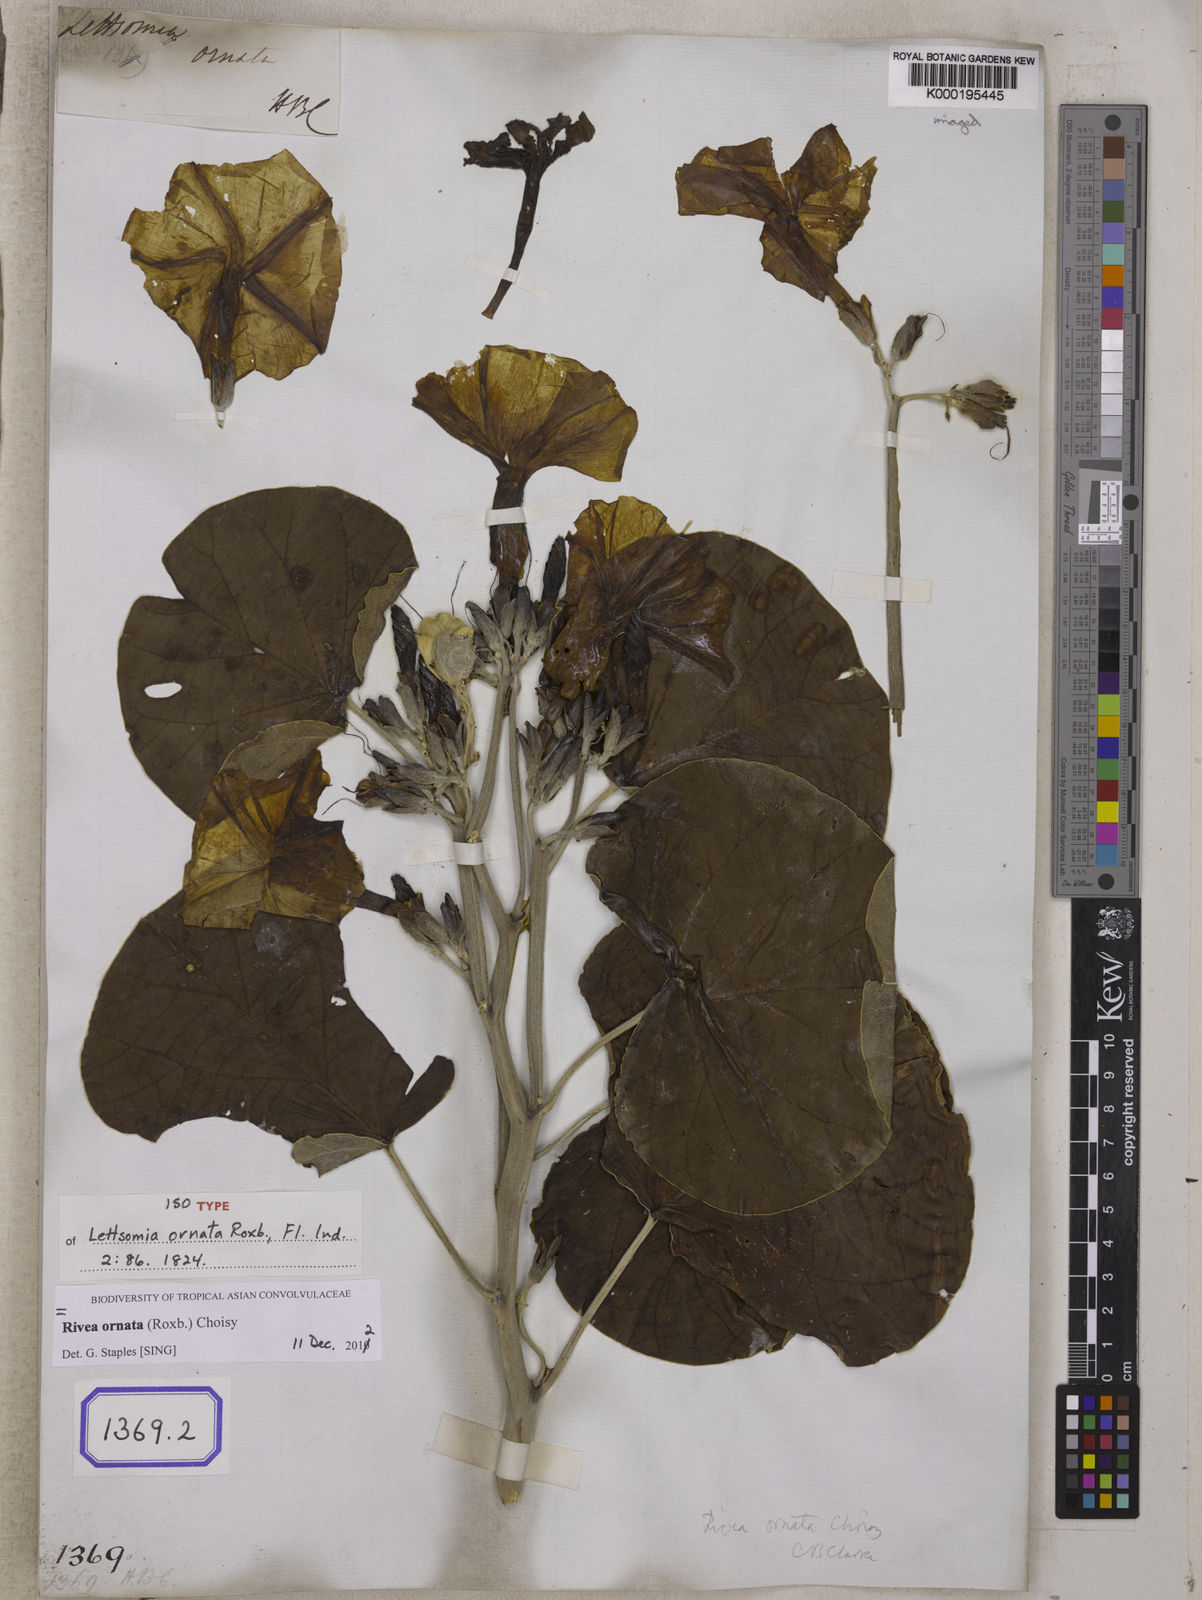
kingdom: Plantae
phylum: Tracheophyta
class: Magnoliopsida
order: Solanales
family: Convolvulaceae
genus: Rivea
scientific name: Rivea ornata
